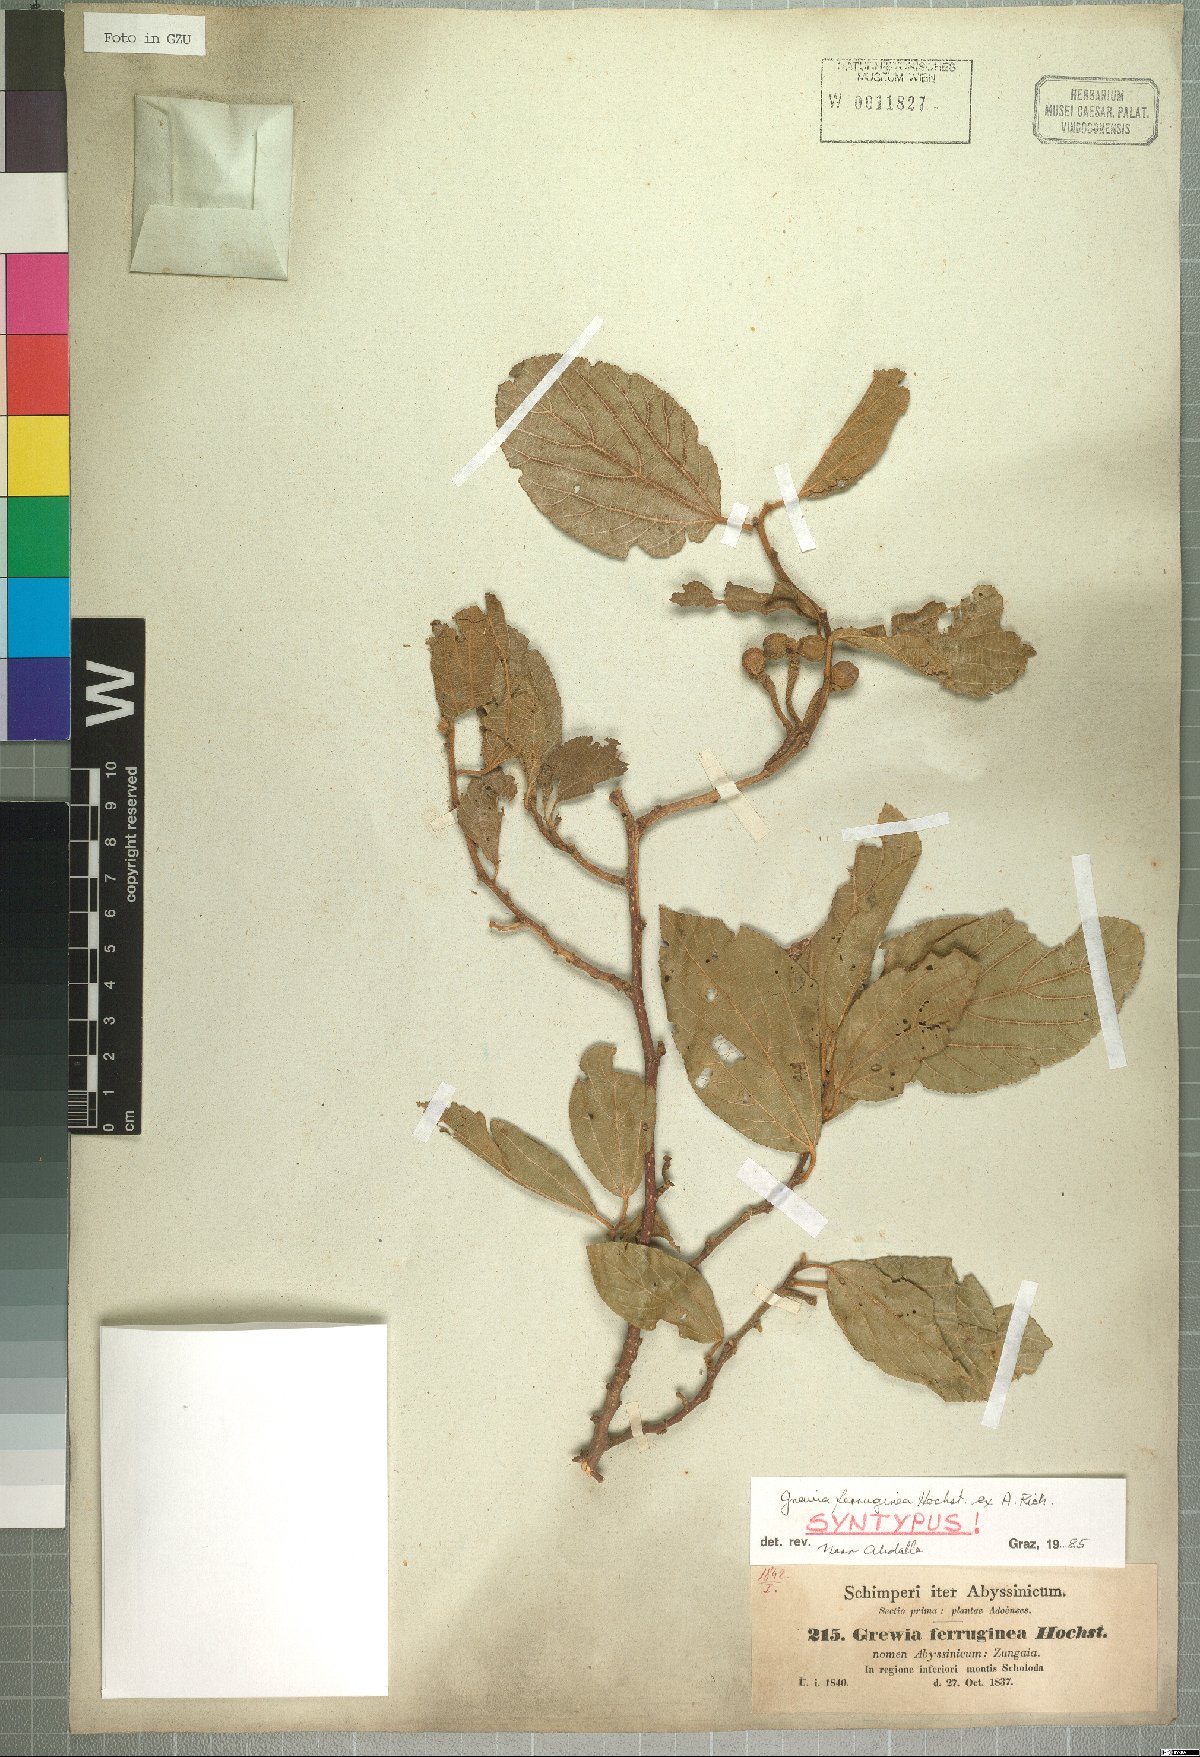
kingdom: Plantae
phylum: Tracheophyta
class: Magnoliopsida
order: Malvales
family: Malvaceae
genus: Grewia
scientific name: Grewia ferruginea
